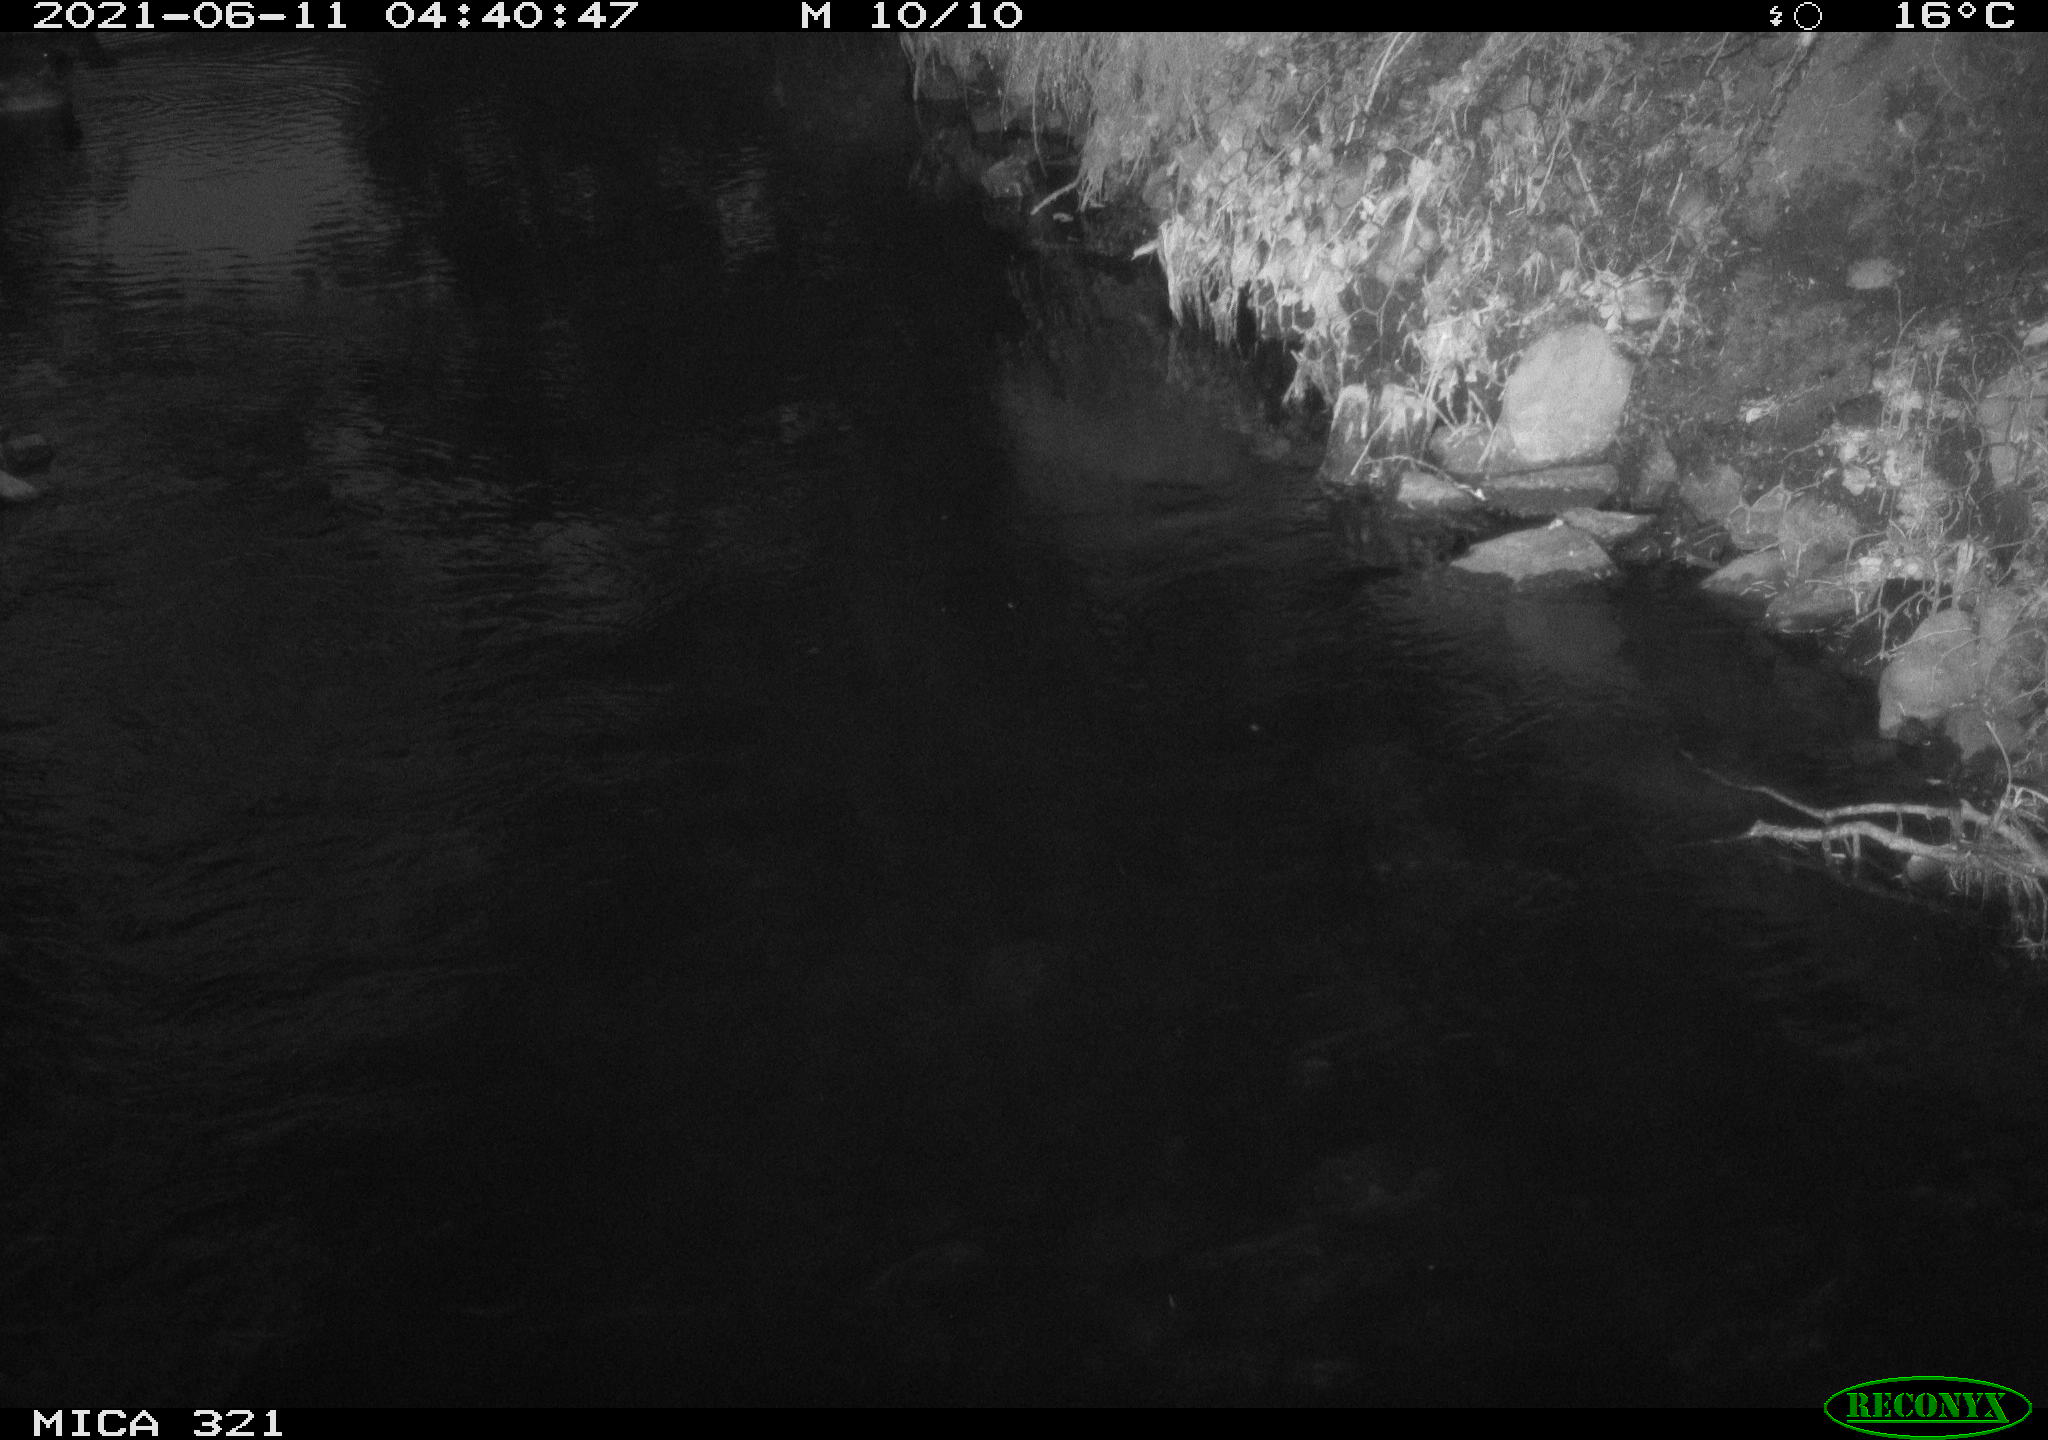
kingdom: Animalia
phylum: Chordata
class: Aves
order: Anseriformes
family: Anatidae
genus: Anas
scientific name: Anas platyrhynchos
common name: Mallard
